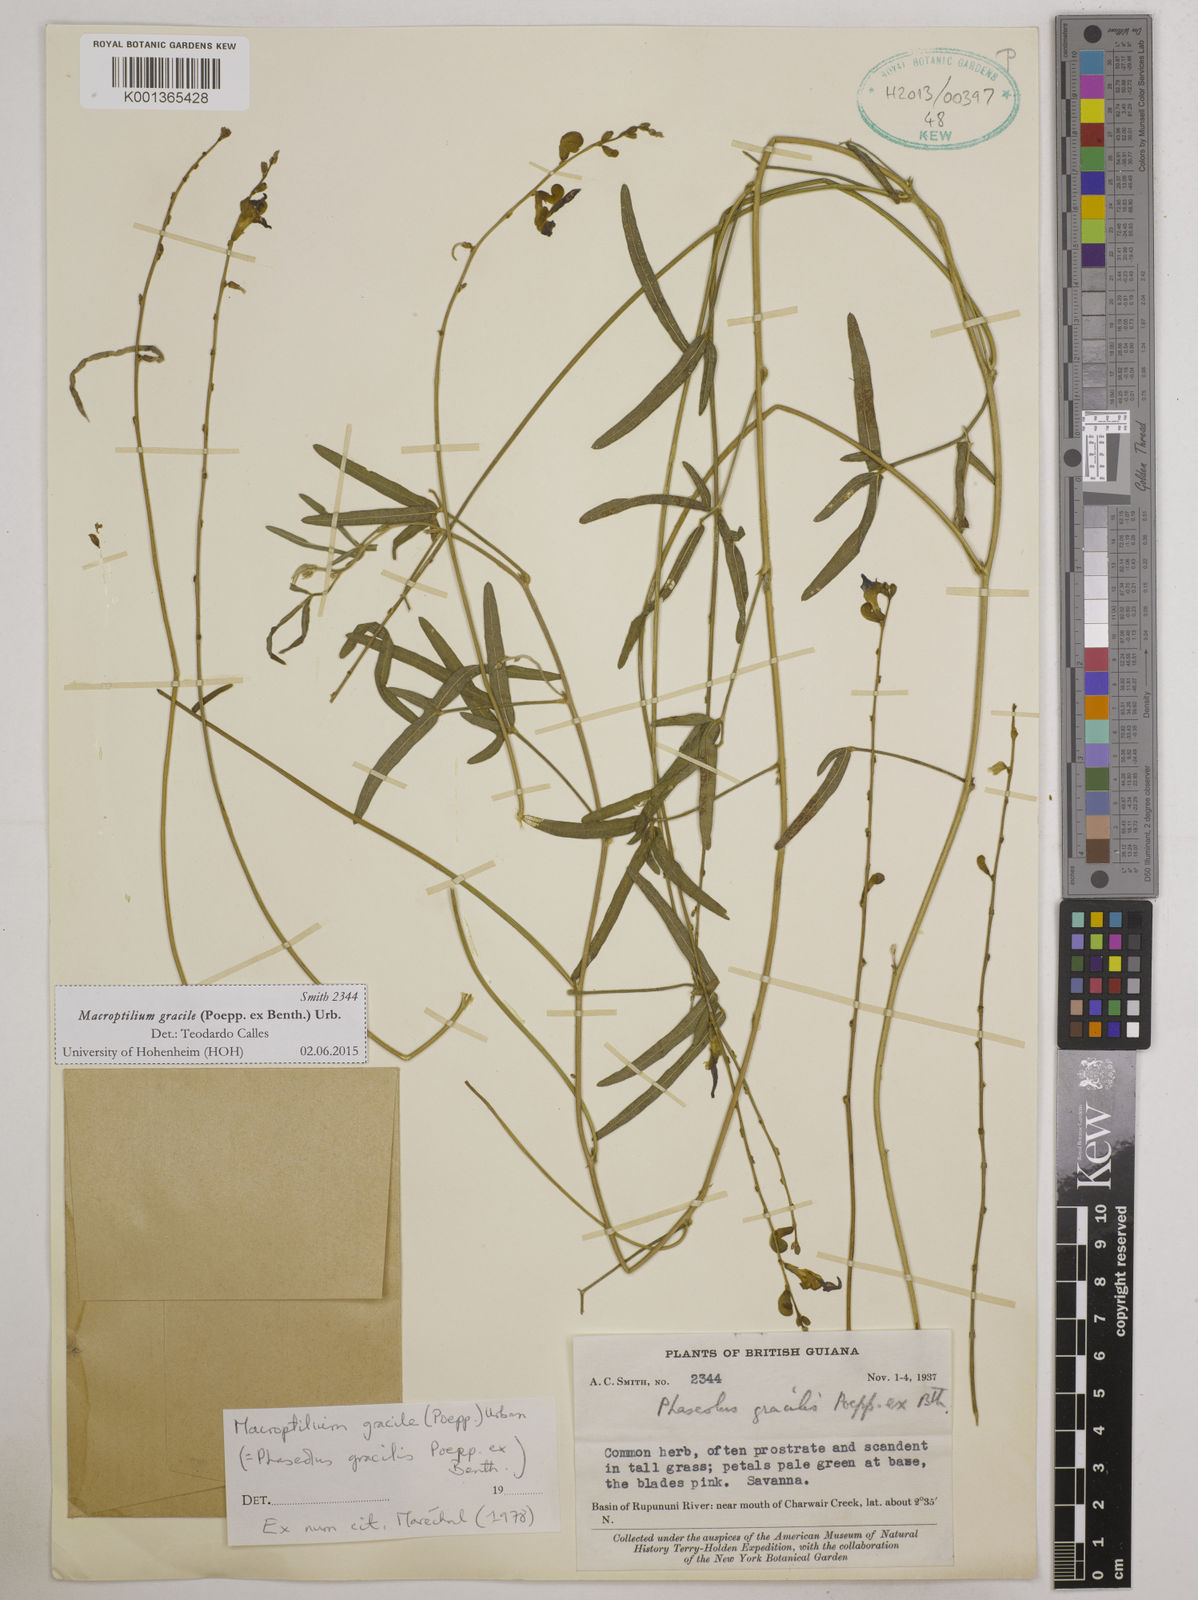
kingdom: Plantae
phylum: Tracheophyta
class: Magnoliopsida
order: Fabales
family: Fabaceae
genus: Macroptilium
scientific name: Macroptilium gracile
